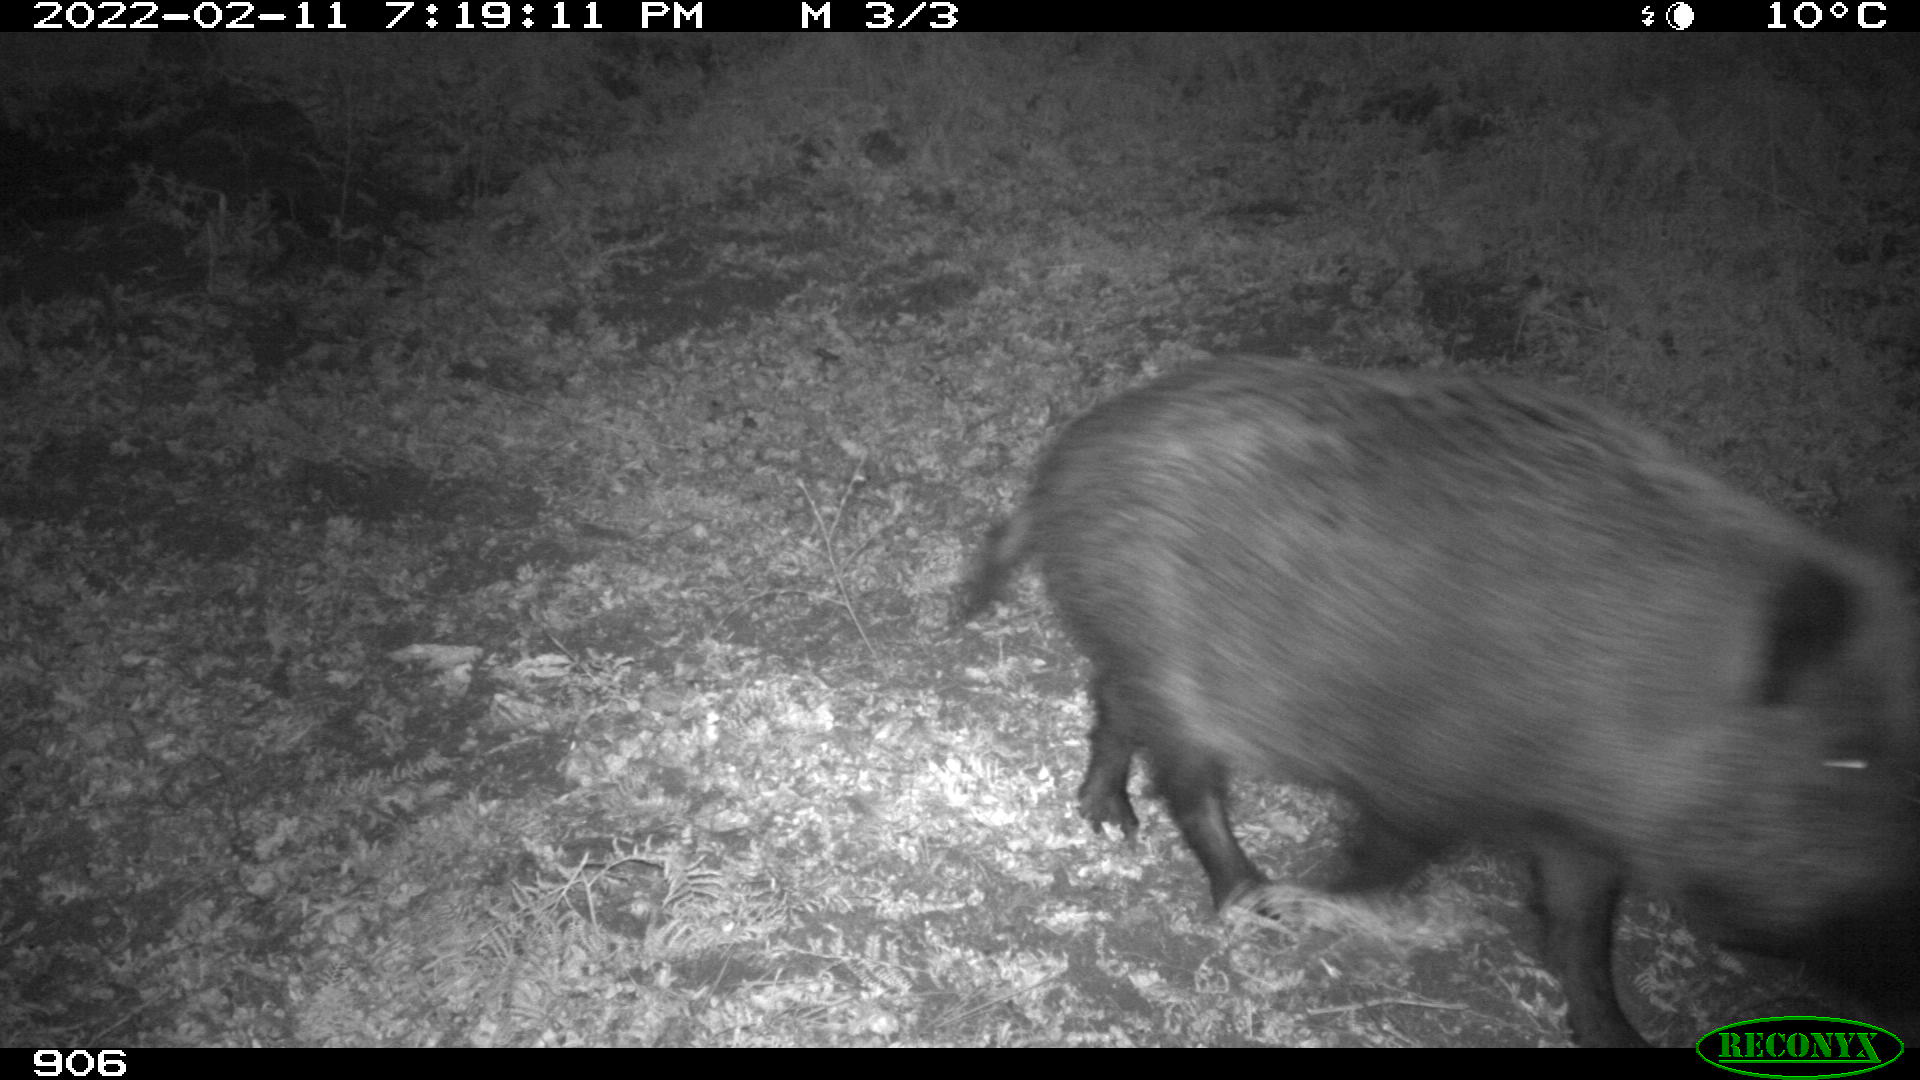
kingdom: Animalia
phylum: Chordata
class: Mammalia
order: Artiodactyla
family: Suidae
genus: Sus
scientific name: Sus scrofa
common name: Wild boar
